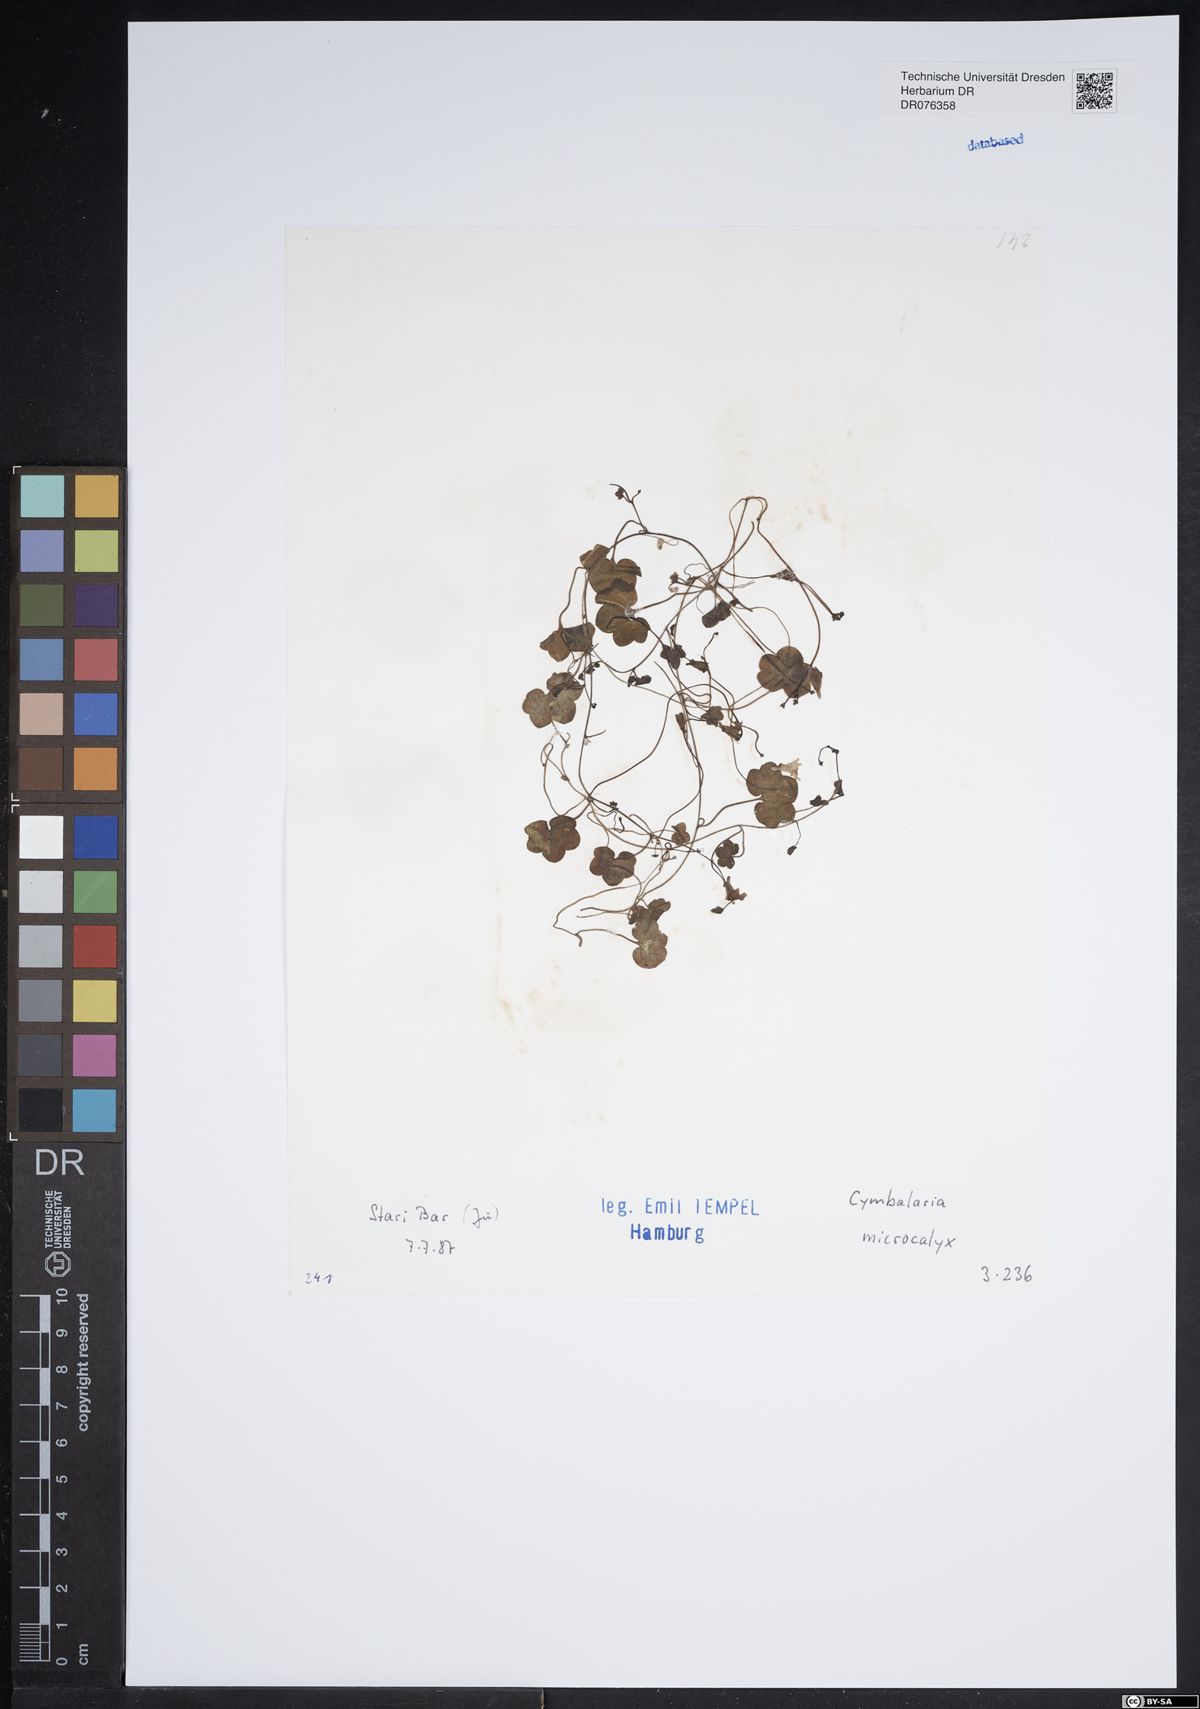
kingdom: Plantae
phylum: Tracheophyta
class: Magnoliopsida
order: Lamiales
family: Plantaginaceae
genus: Cymbalaria
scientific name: Cymbalaria
